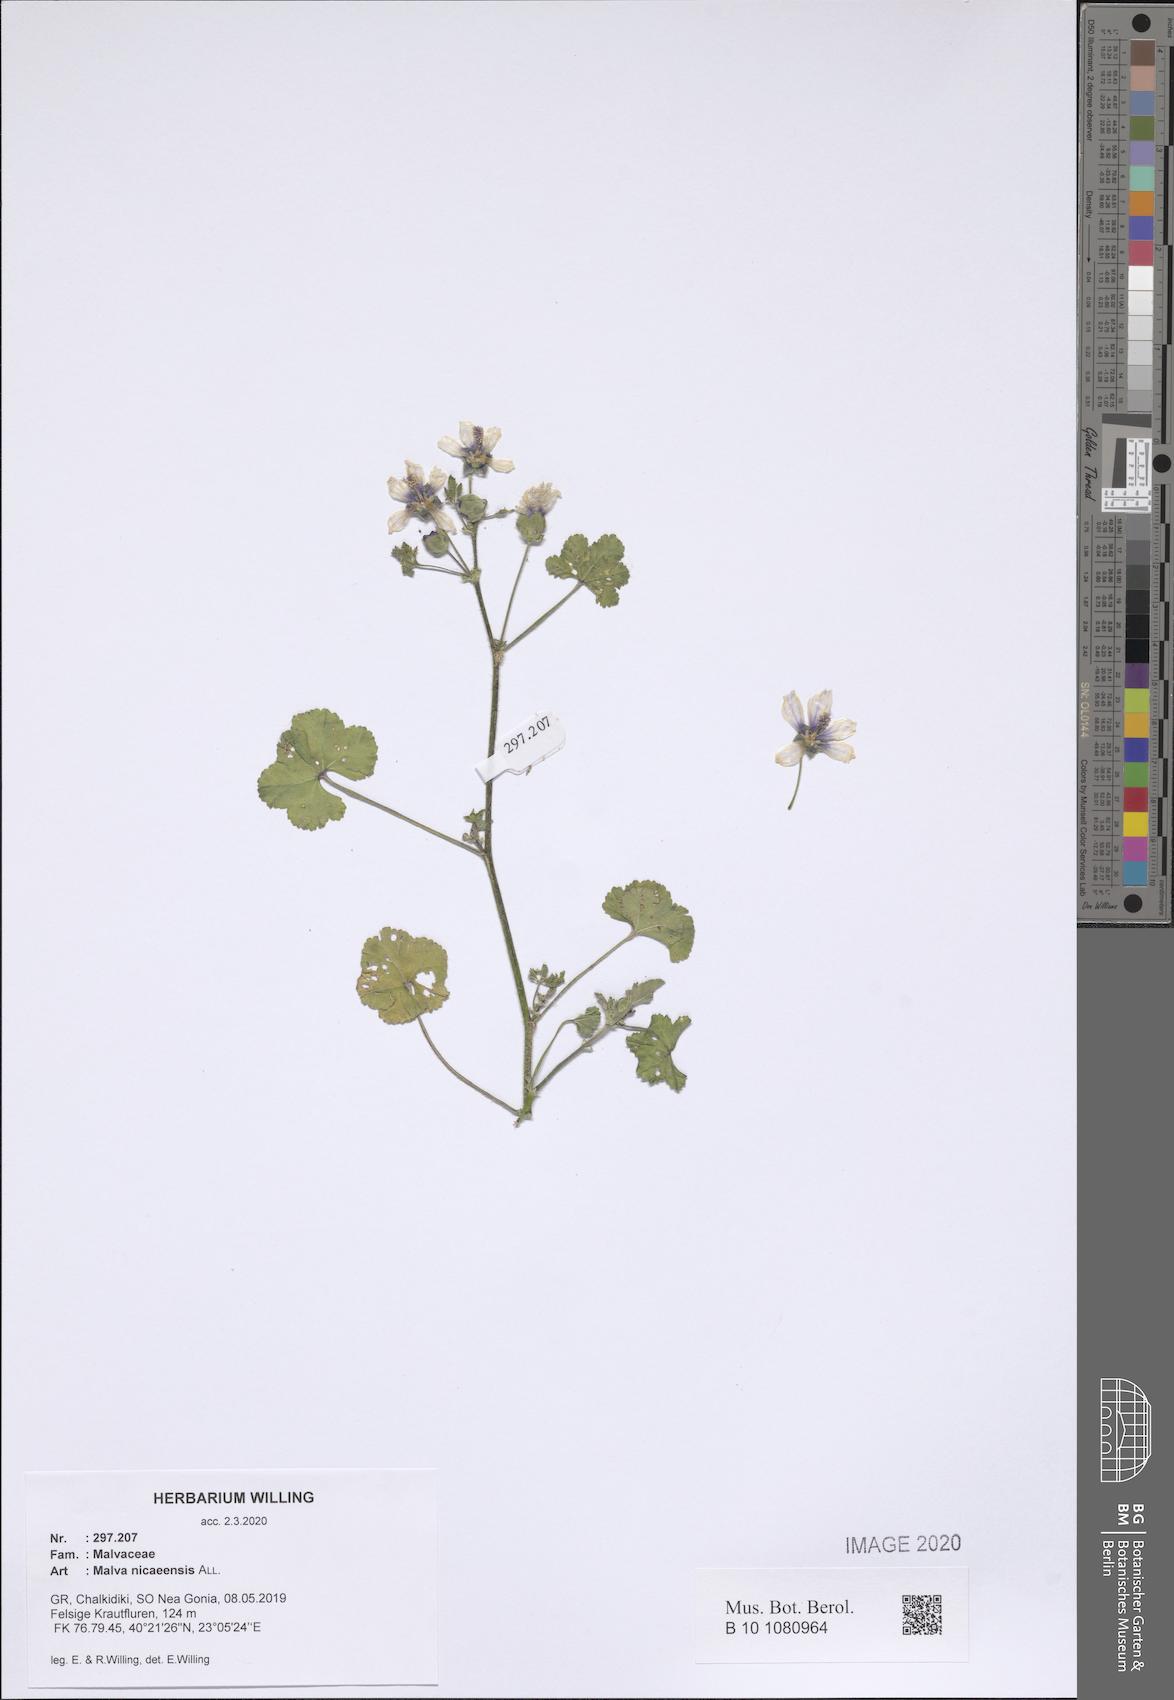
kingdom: Plantae
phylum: Tracheophyta
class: Magnoliopsida
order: Malvales
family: Malvaceae
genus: Malva
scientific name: Malva nicaeensis
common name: French mallow
